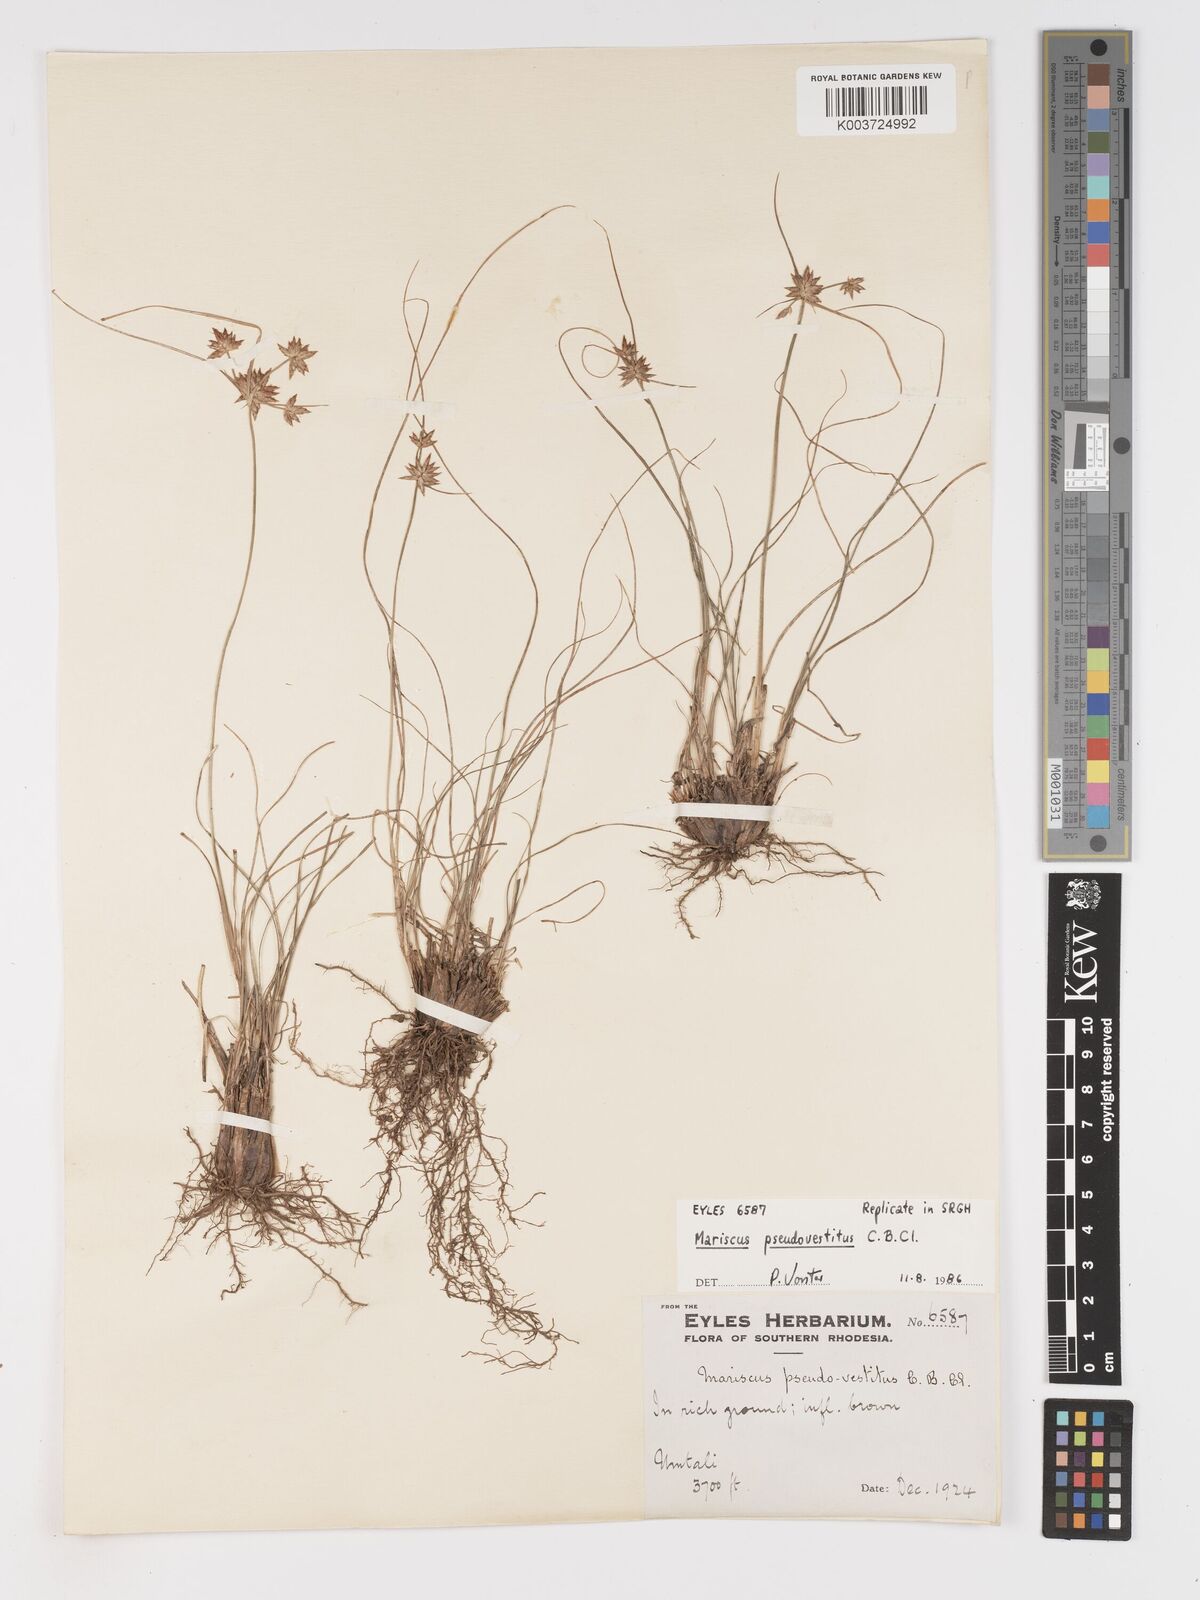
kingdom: Plantae
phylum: Tracheophyta
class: Liliopsida
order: Poales
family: Cyperaceae
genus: Cyperus
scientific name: Cyperus pseudovestitus
